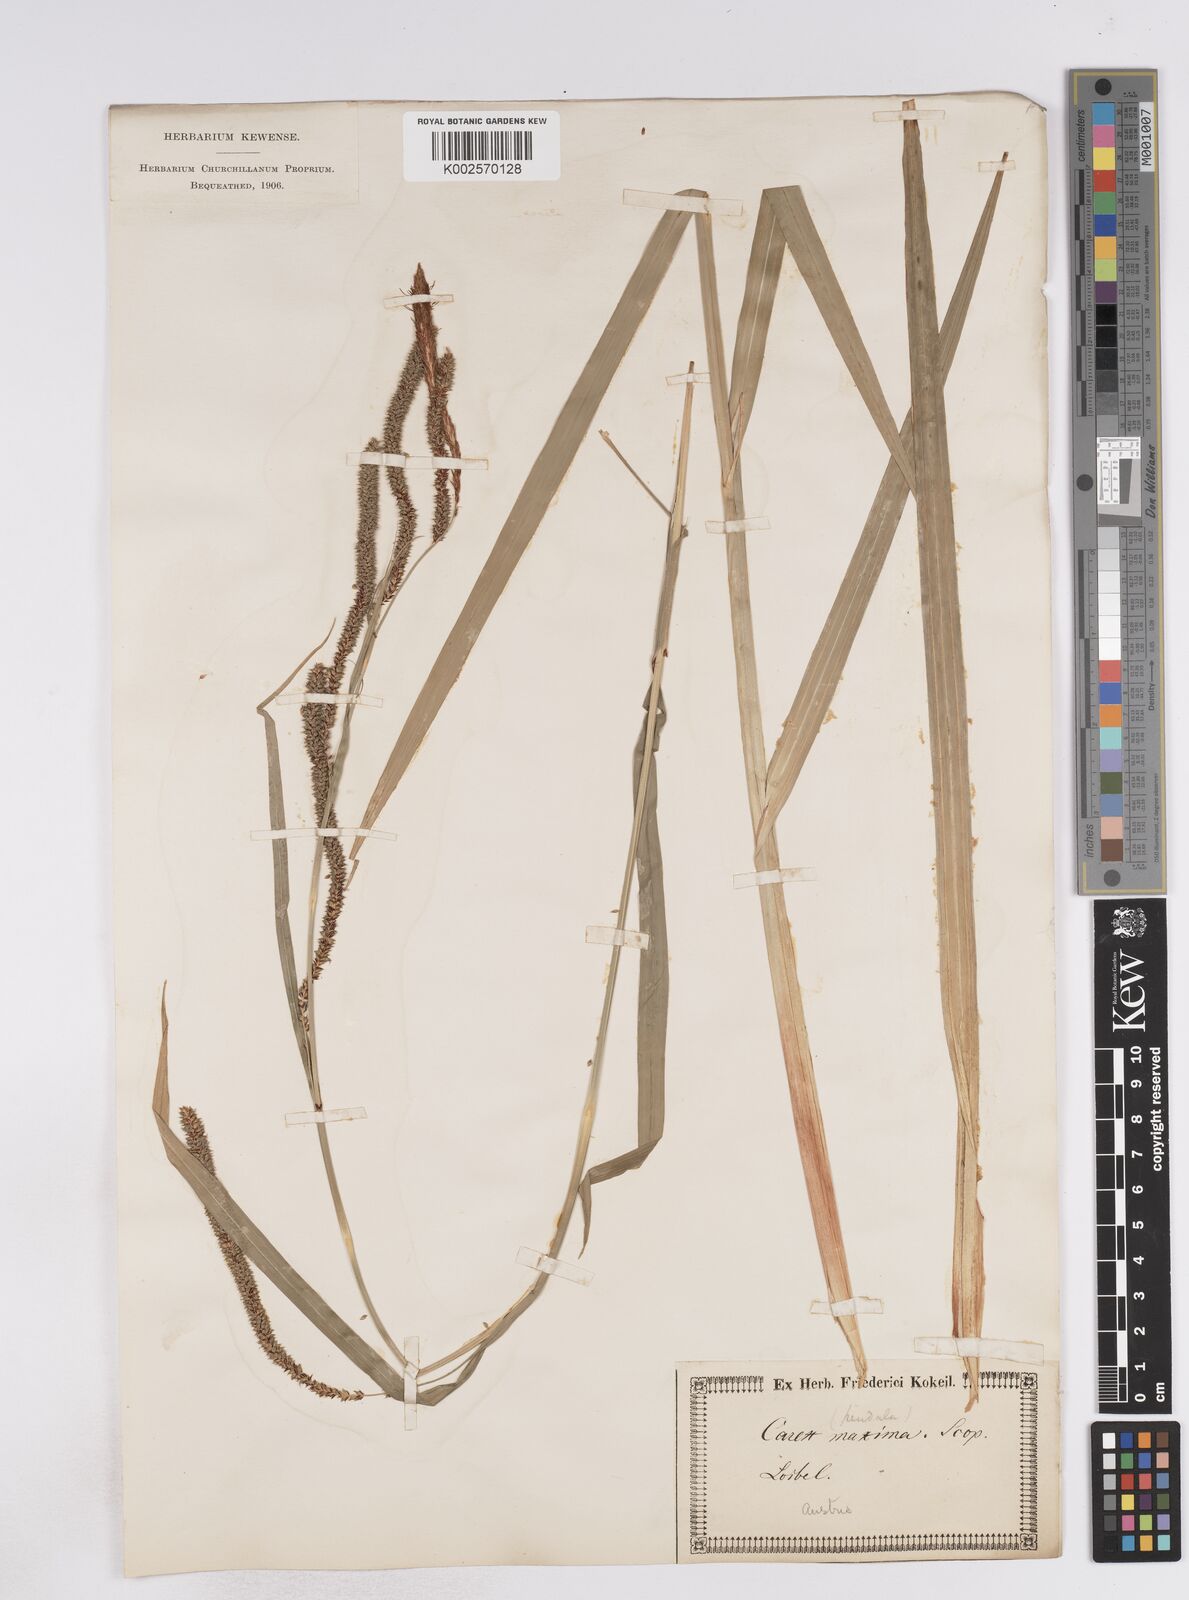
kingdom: Plantae
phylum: Tracheophyta
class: Liliopsida
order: Poales
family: Cyperaceae
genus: Carex
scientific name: Carex pendula
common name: Pendulous sedge
